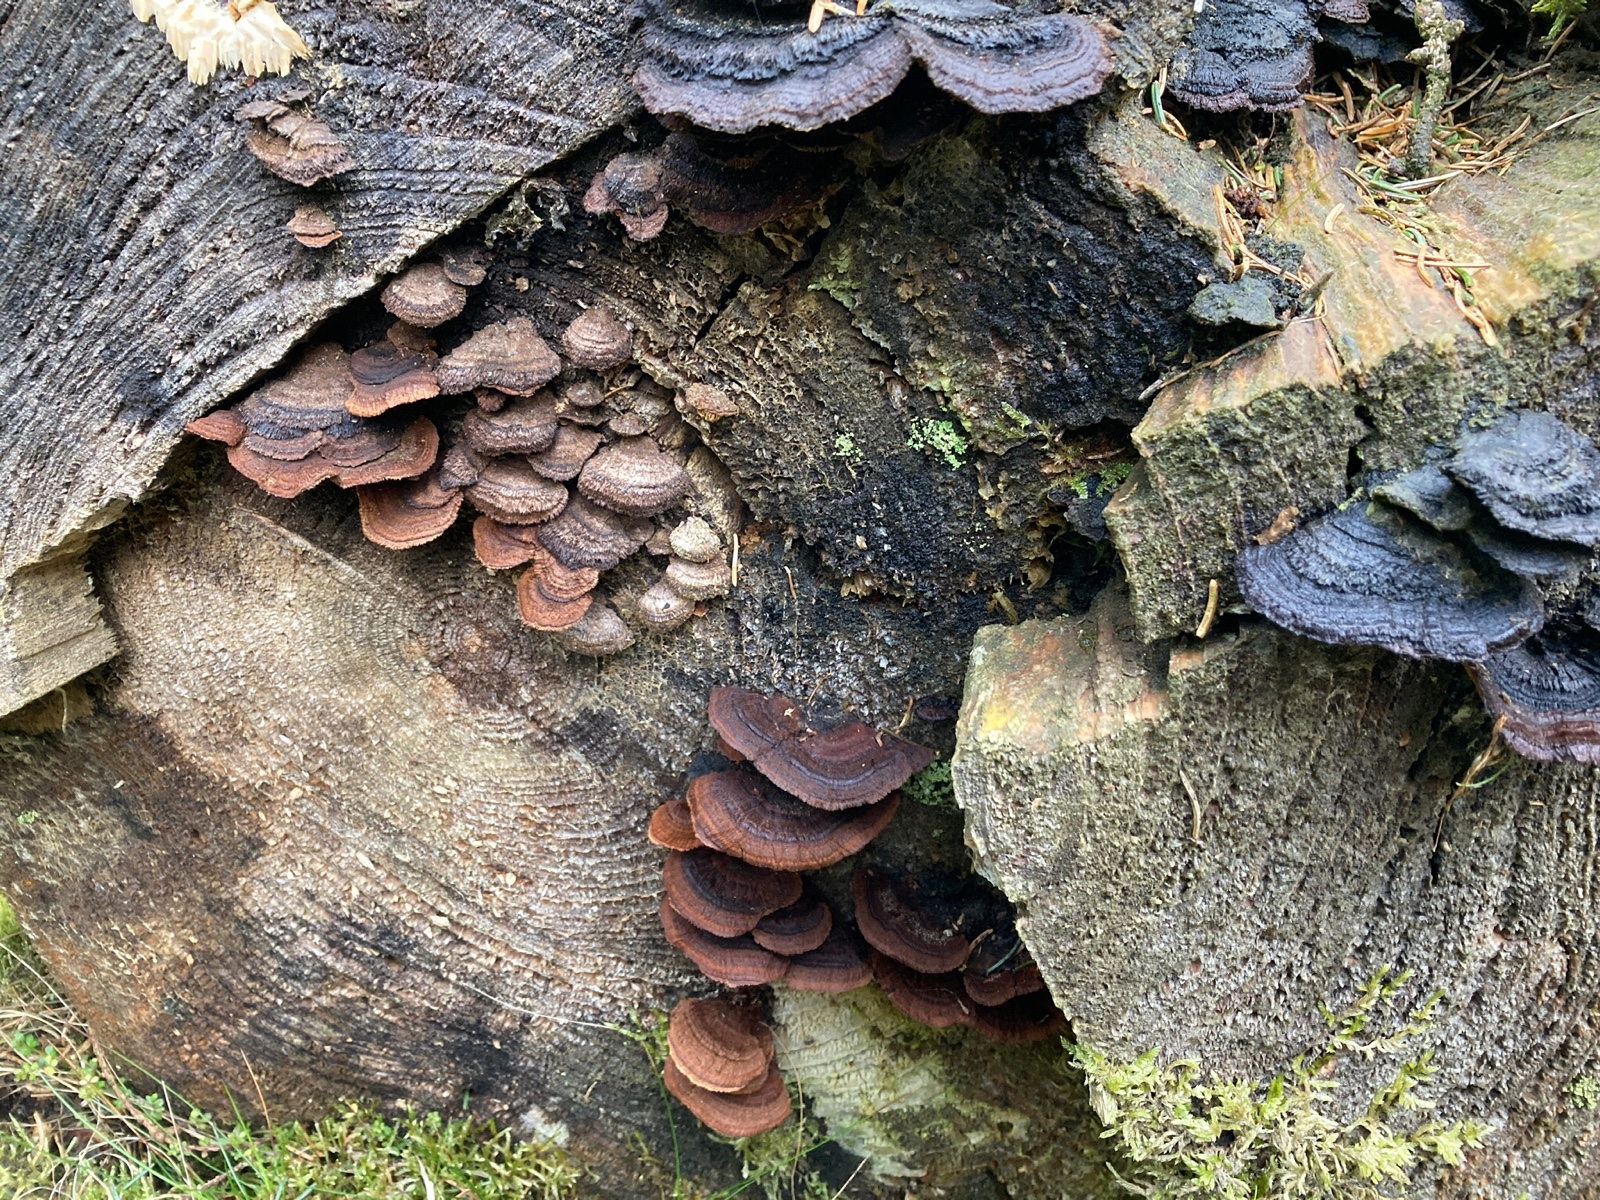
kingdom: Fungi
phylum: Basidiomycota
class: Agaricomycetes
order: Gloeophyllales
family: Gloeophyllaceae
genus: Gloeophyllum
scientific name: Gloeophyllum sepiarium
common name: fyrre-korkhat
